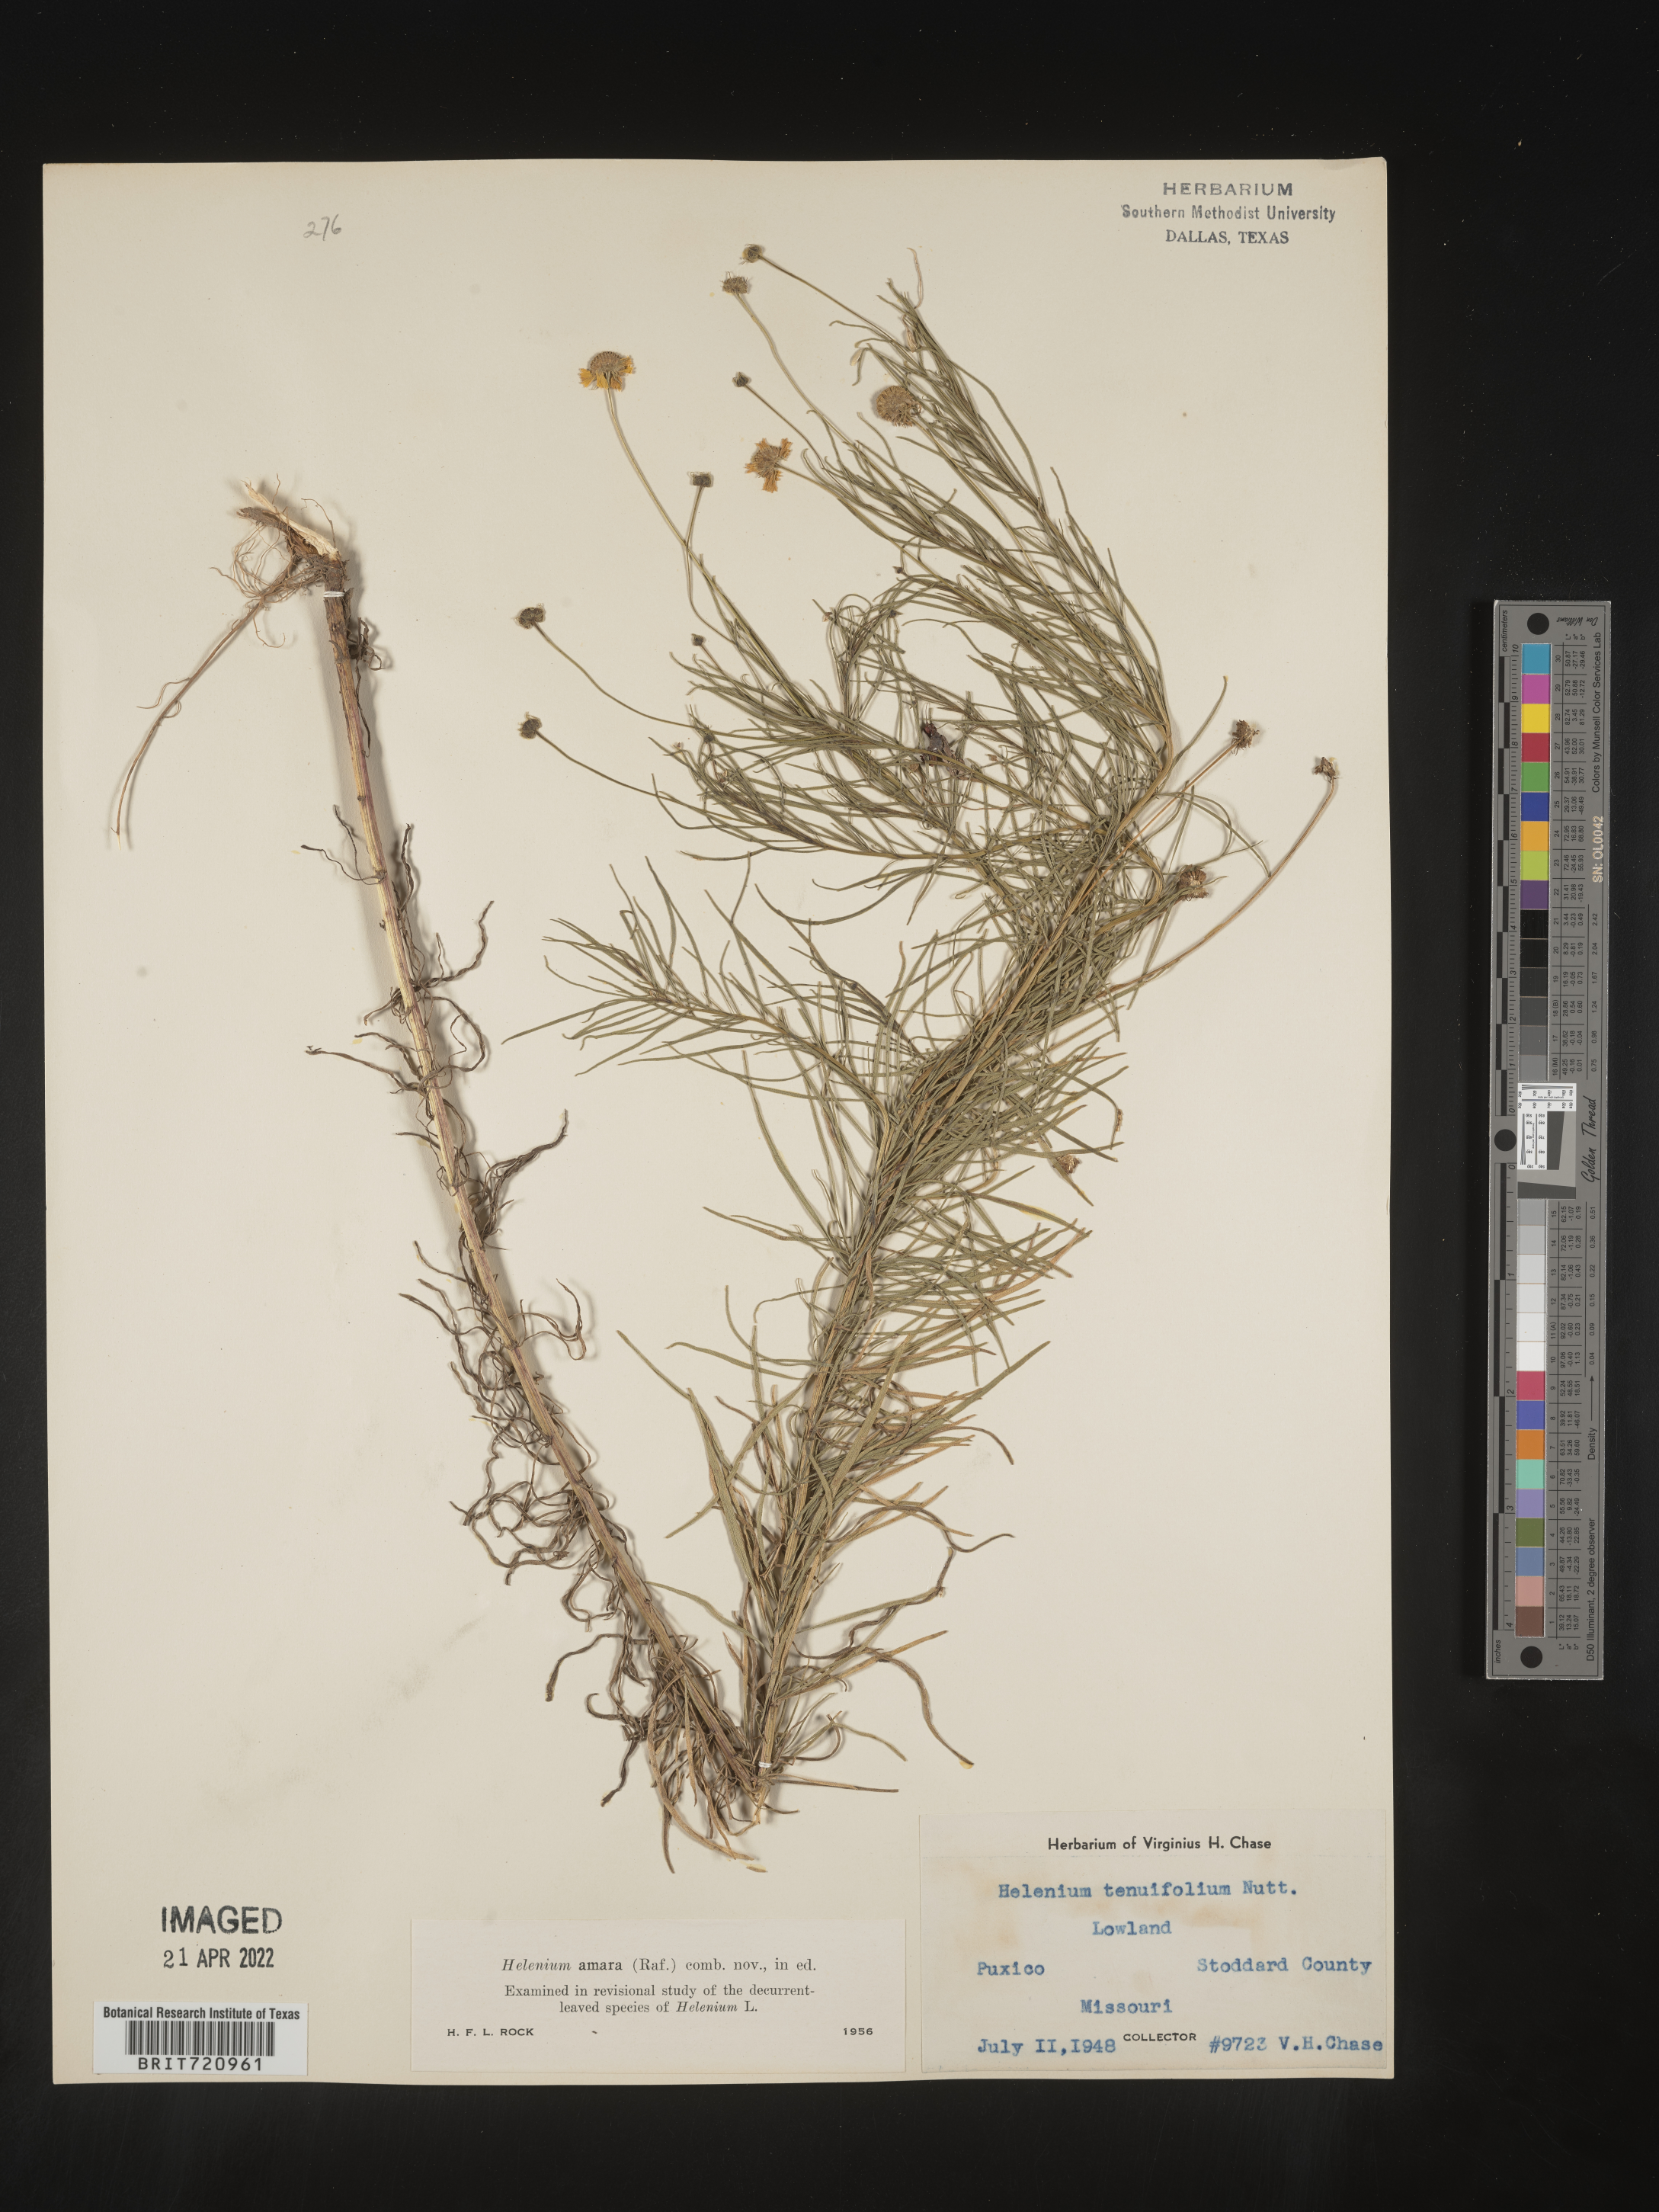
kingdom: Plantae
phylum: Tracheophyta
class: Magnoliopsida
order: Asterales
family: Asteraceae
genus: Helenium
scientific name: Helenium amarum
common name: Bitter sneezeweed
